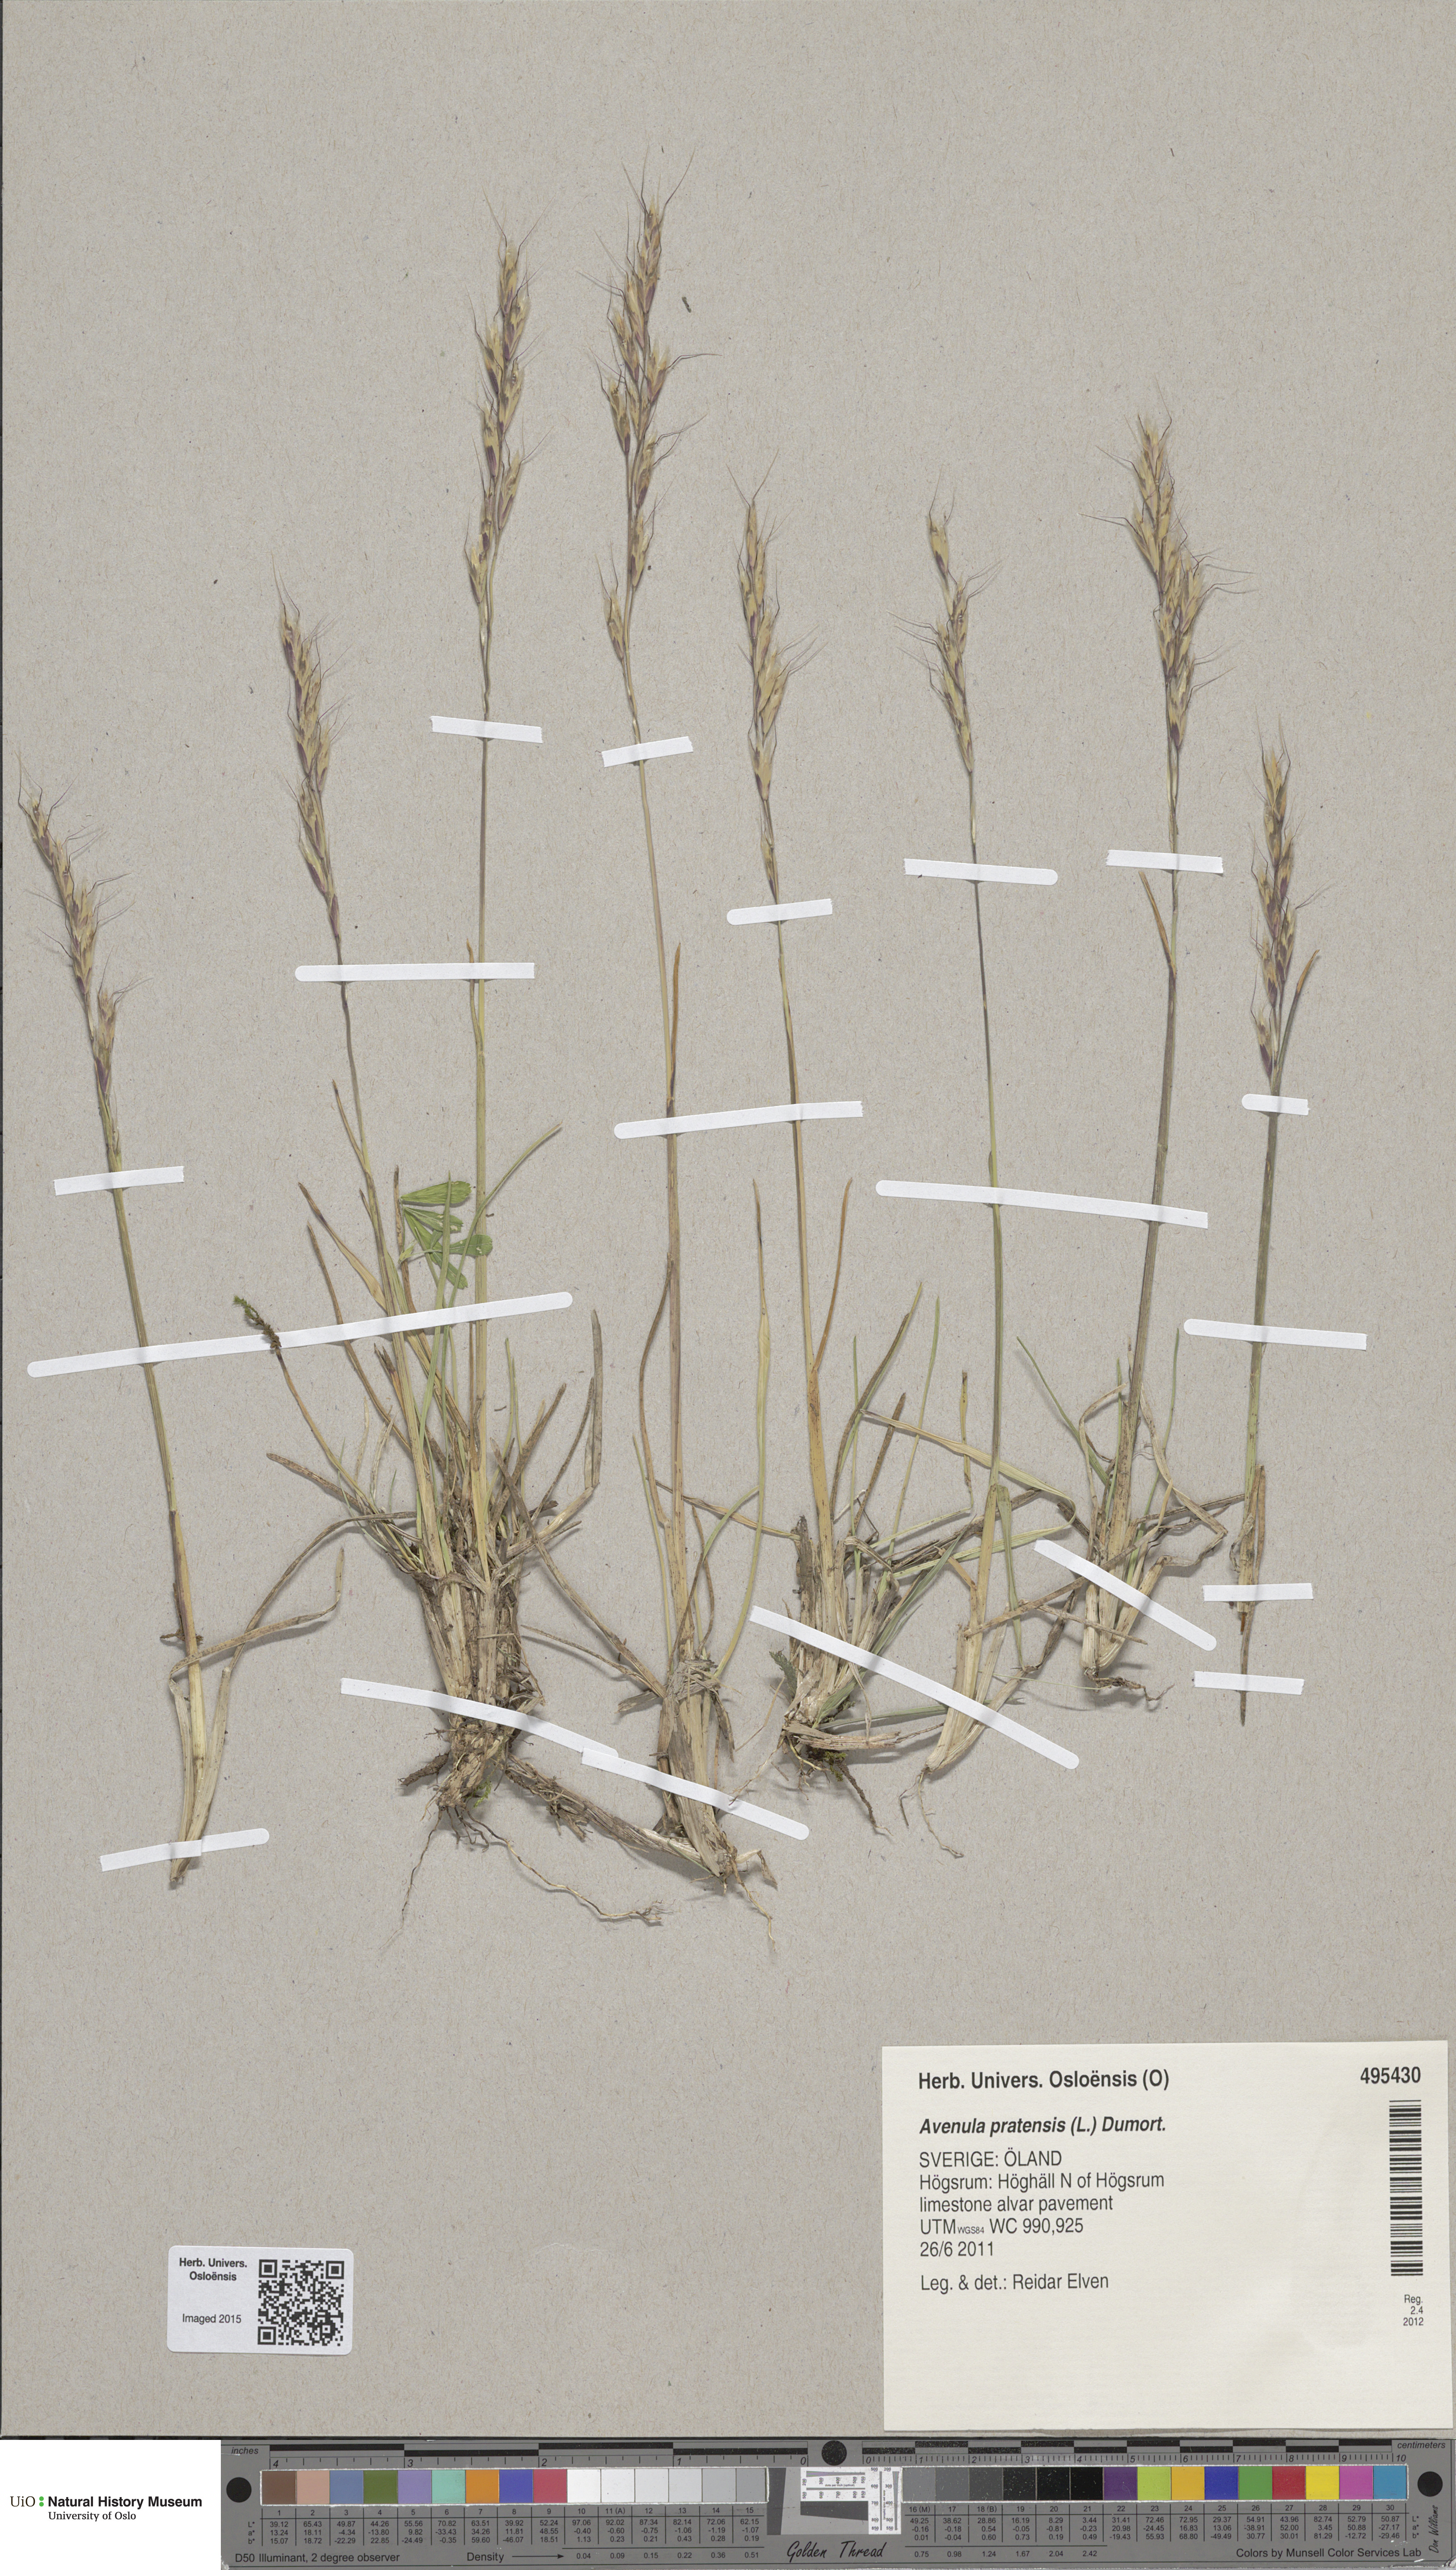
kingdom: Plantae
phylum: Tracheophyta
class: Liliopsida
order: Poales
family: Poaceae
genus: Helictochloa
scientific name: Helictochloa pratensis
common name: Meadow oat grass
